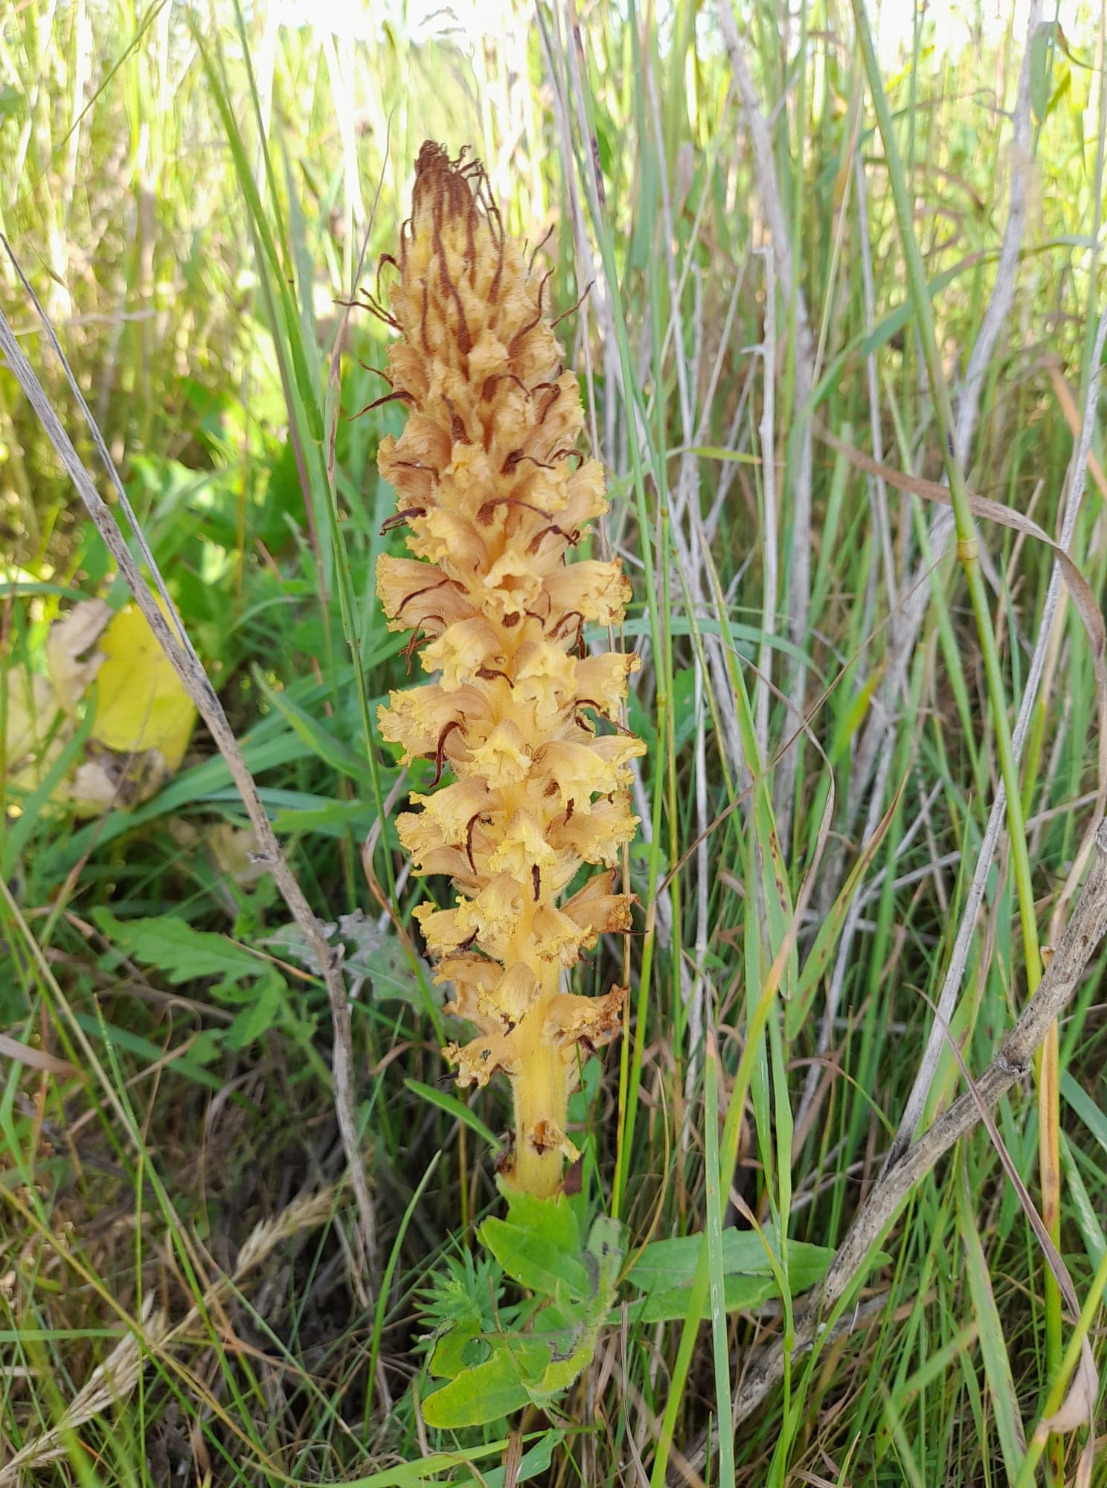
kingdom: Plantae
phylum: Tracheophyta
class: Magnoliopsida
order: Lamiales
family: Orobanchaceae
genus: Orobanche
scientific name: Orobanche elatior
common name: Stor gyvelkvæler
